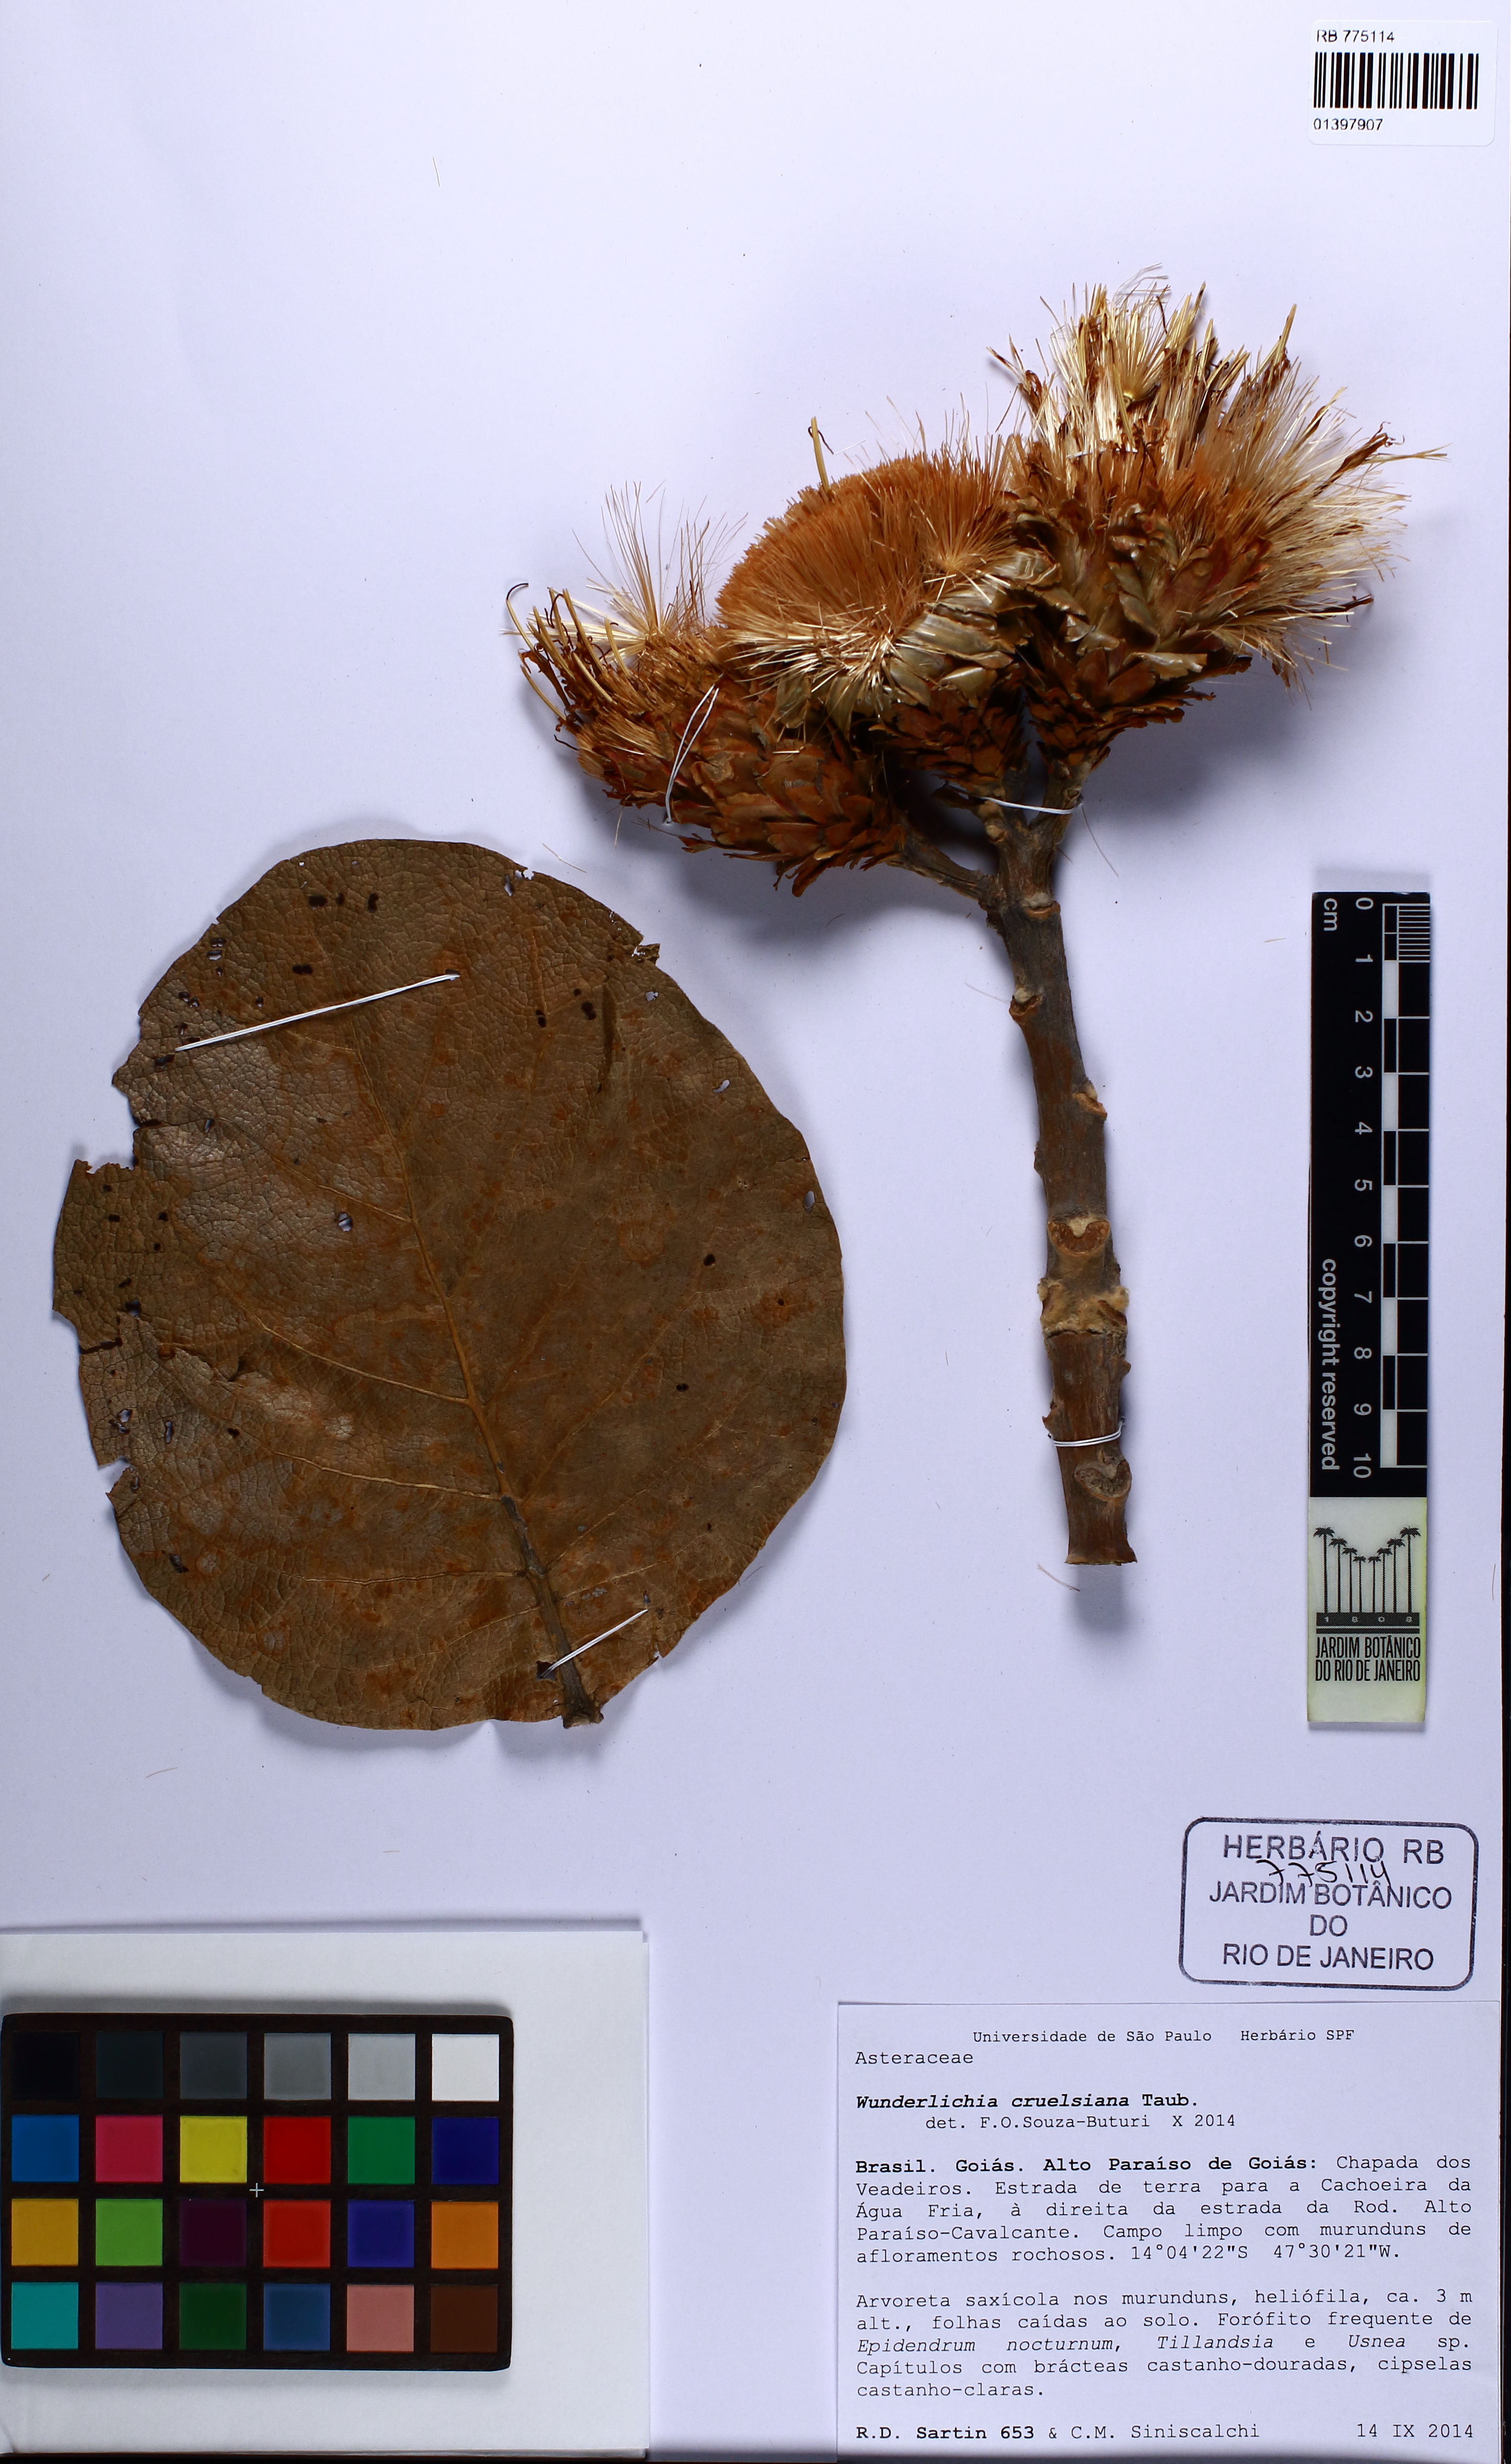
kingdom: Plantae
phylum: Tracheophyta
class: Magnoliopsida
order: Asterales
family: Asteraceae
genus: Wunderlichia
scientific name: Wunderlichia cruelsiana
